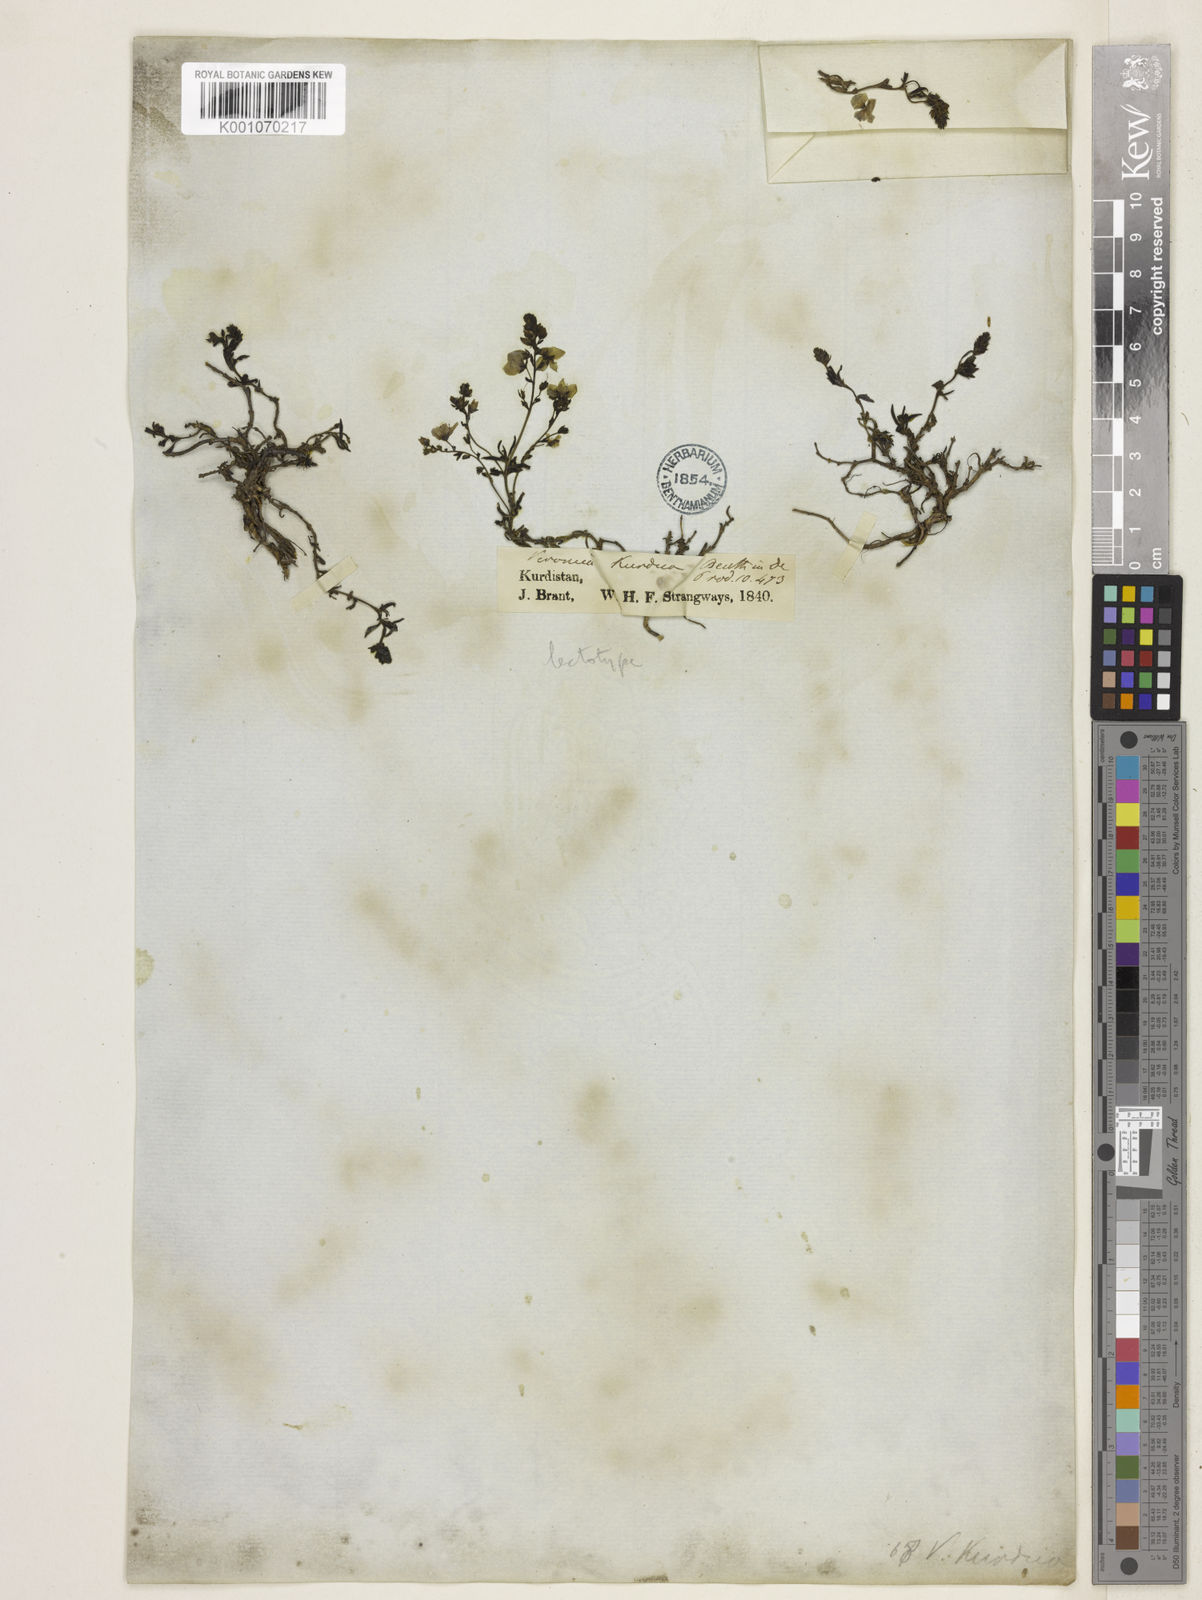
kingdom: Plantae
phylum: Tracheophyta
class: Magnoliopsida
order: Lamiales
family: Plantaginaceae
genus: Veronica
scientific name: Veronica orientalis
